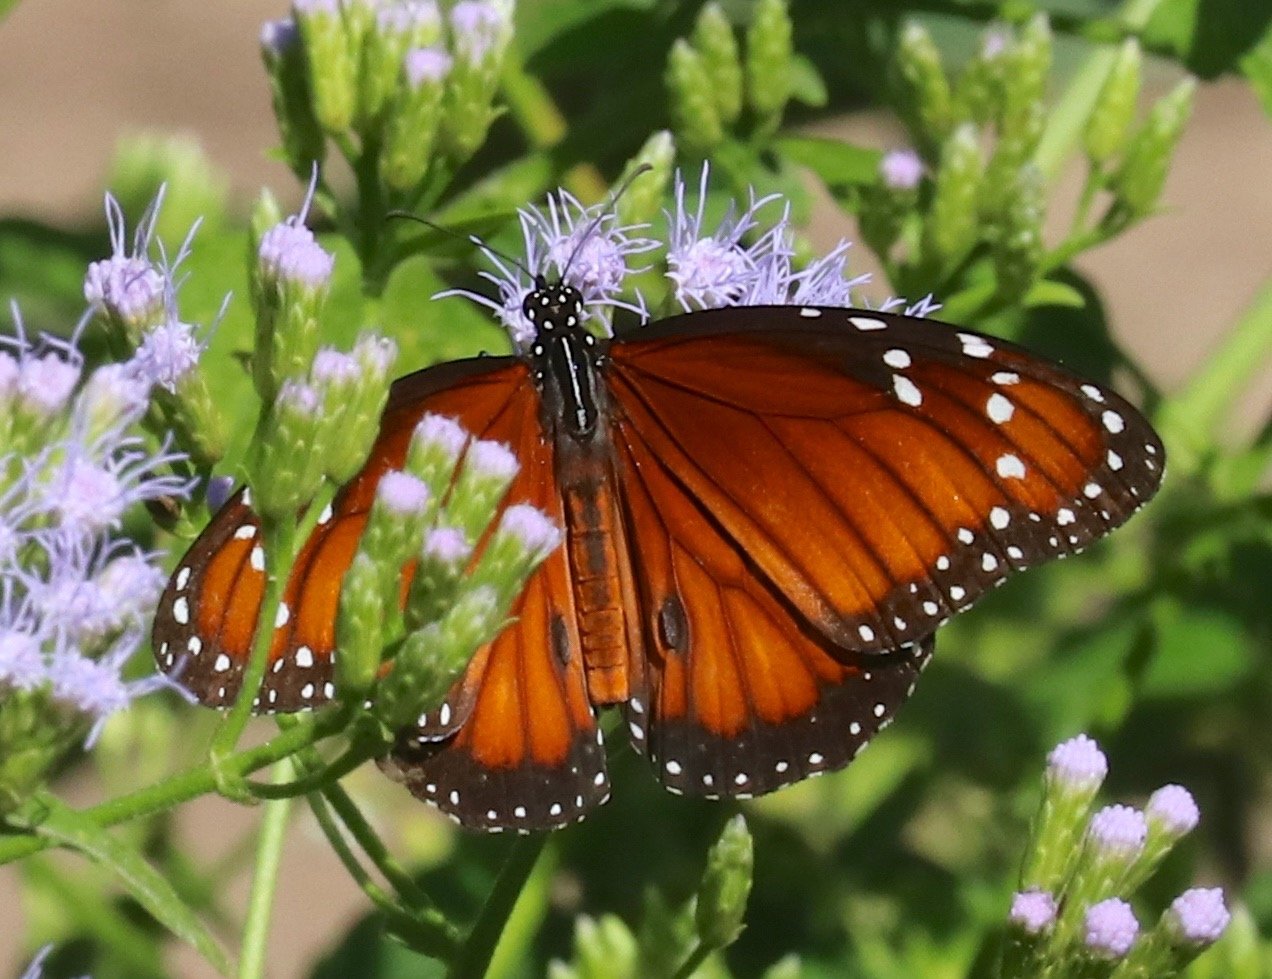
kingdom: Animalia
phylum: Arthropoda
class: Insecta
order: Lepidoptera
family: Nymphalidae
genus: Danaus
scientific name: Danaus eresimus
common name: Soldier
